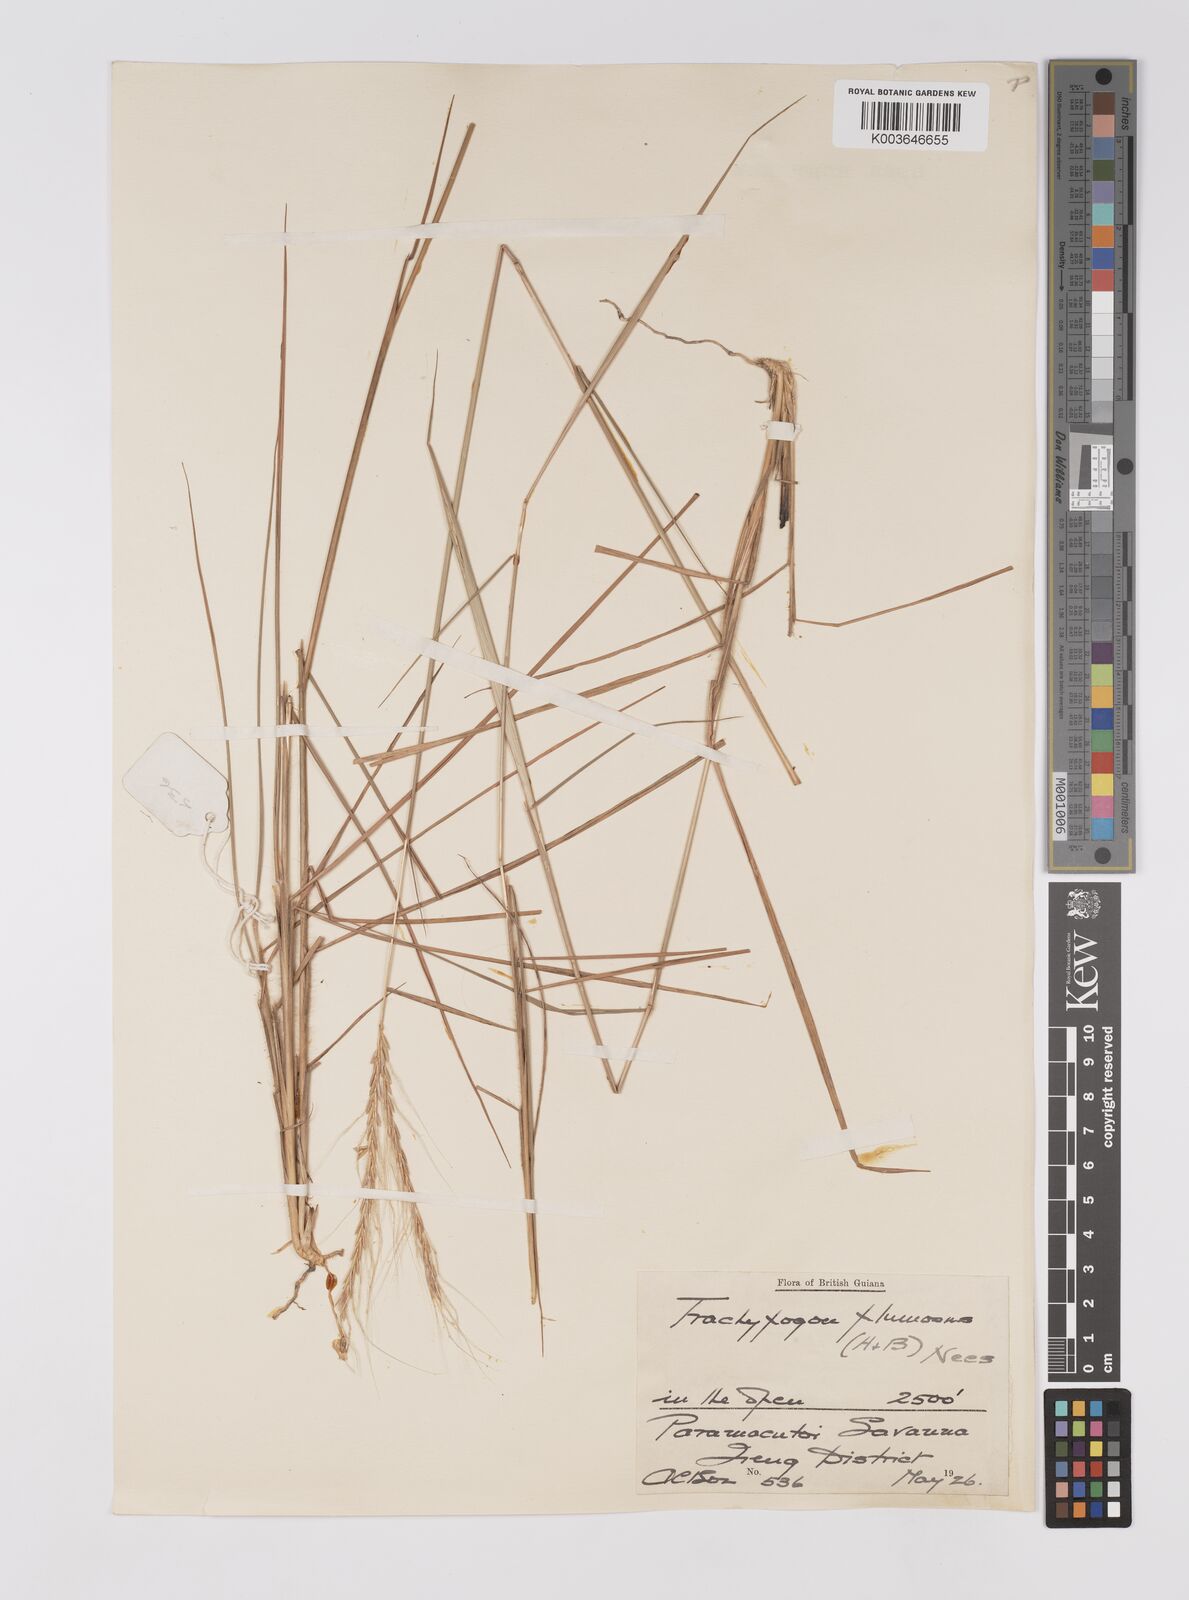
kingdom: Plantae
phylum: Tracheophyta
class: Liliopsida
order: Poales
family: Poaceae
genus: Trachypogon
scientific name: Trachypogon spicatus
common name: Crinkle-awn
